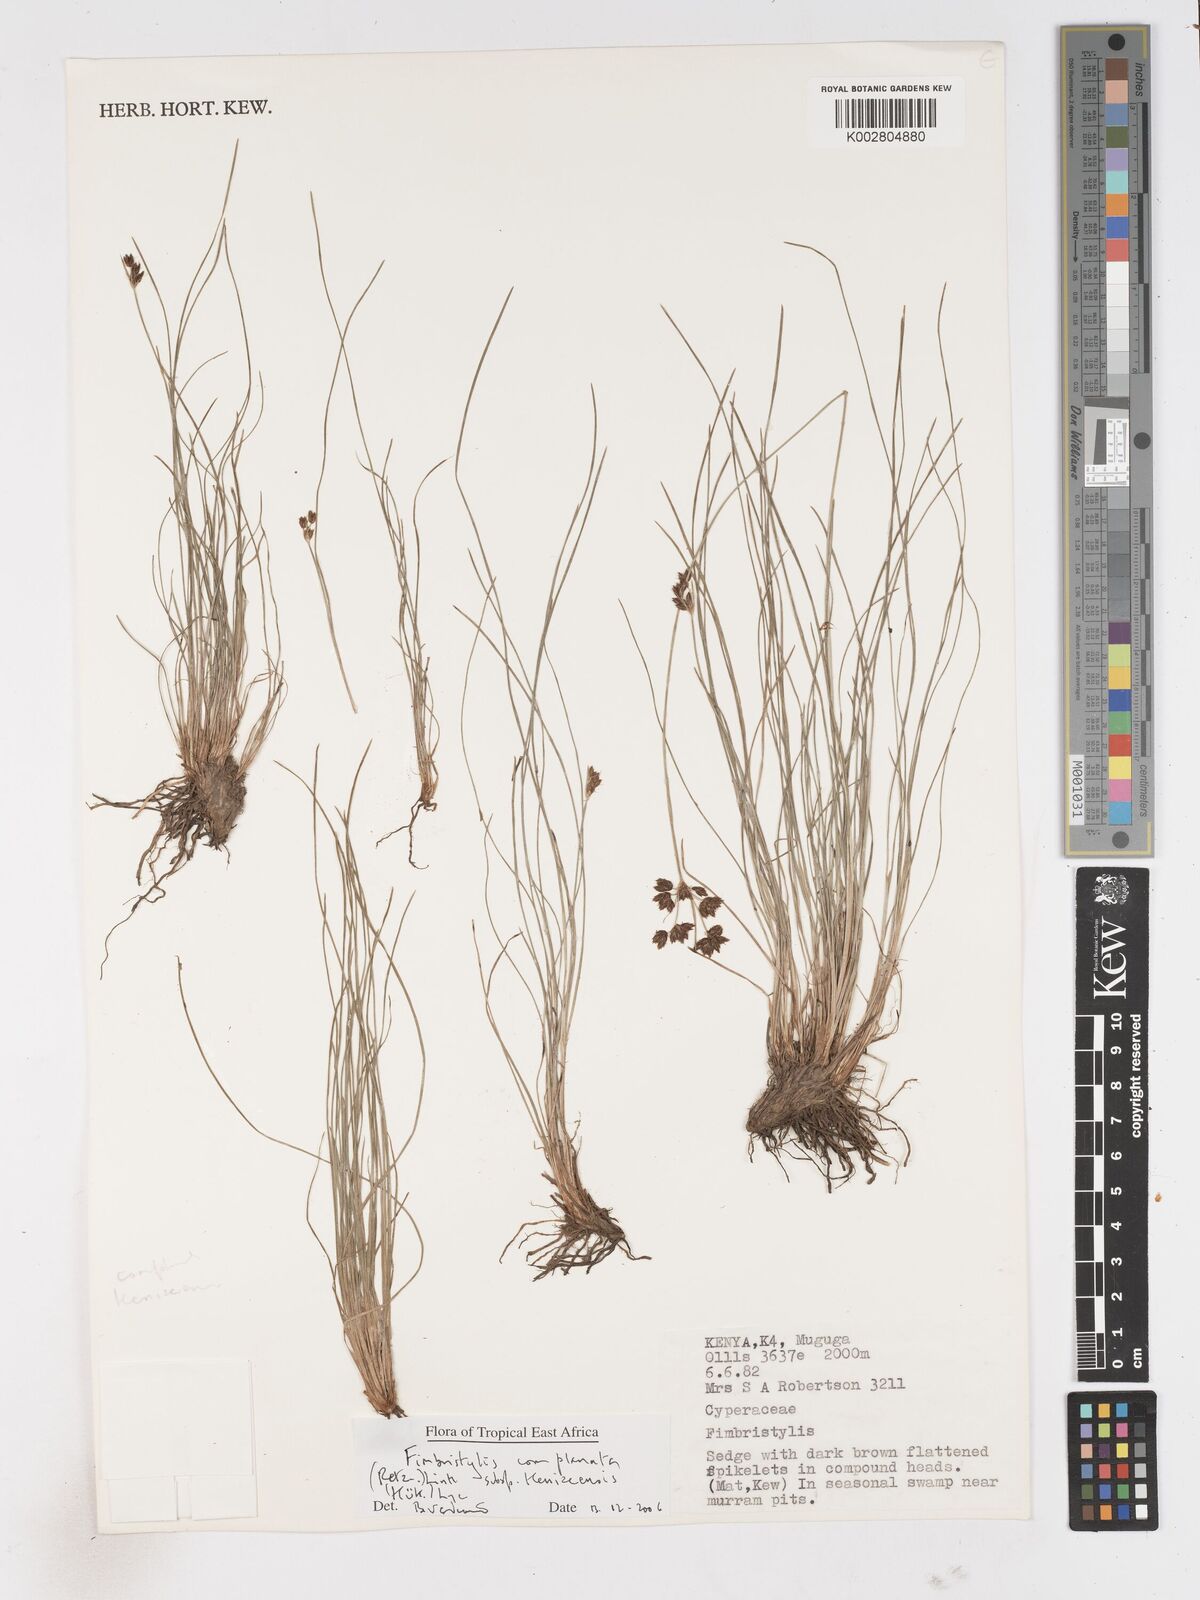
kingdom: Plantae
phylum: Tracheophyta
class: Liliopsida
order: Poales
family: Cyperaceae
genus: Fimbristylis
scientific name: Fimbristylis complanata
